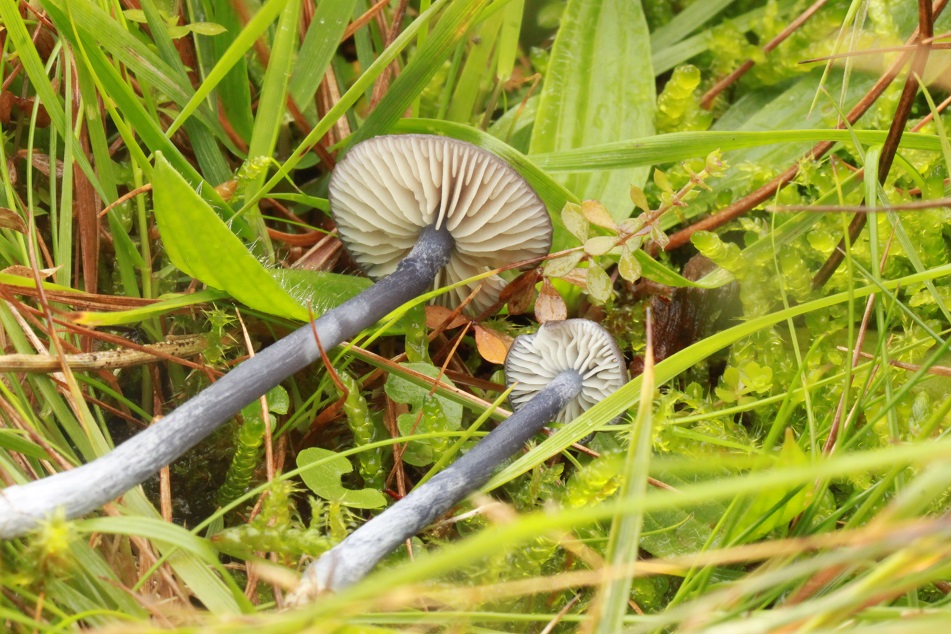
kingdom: Fungi
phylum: Basidiomycota
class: Agaricomycetes
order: Agaricales
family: Entolomataceae
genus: Entoloma
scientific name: Entoloma atrocoeruleum
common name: sortblå rødblad
